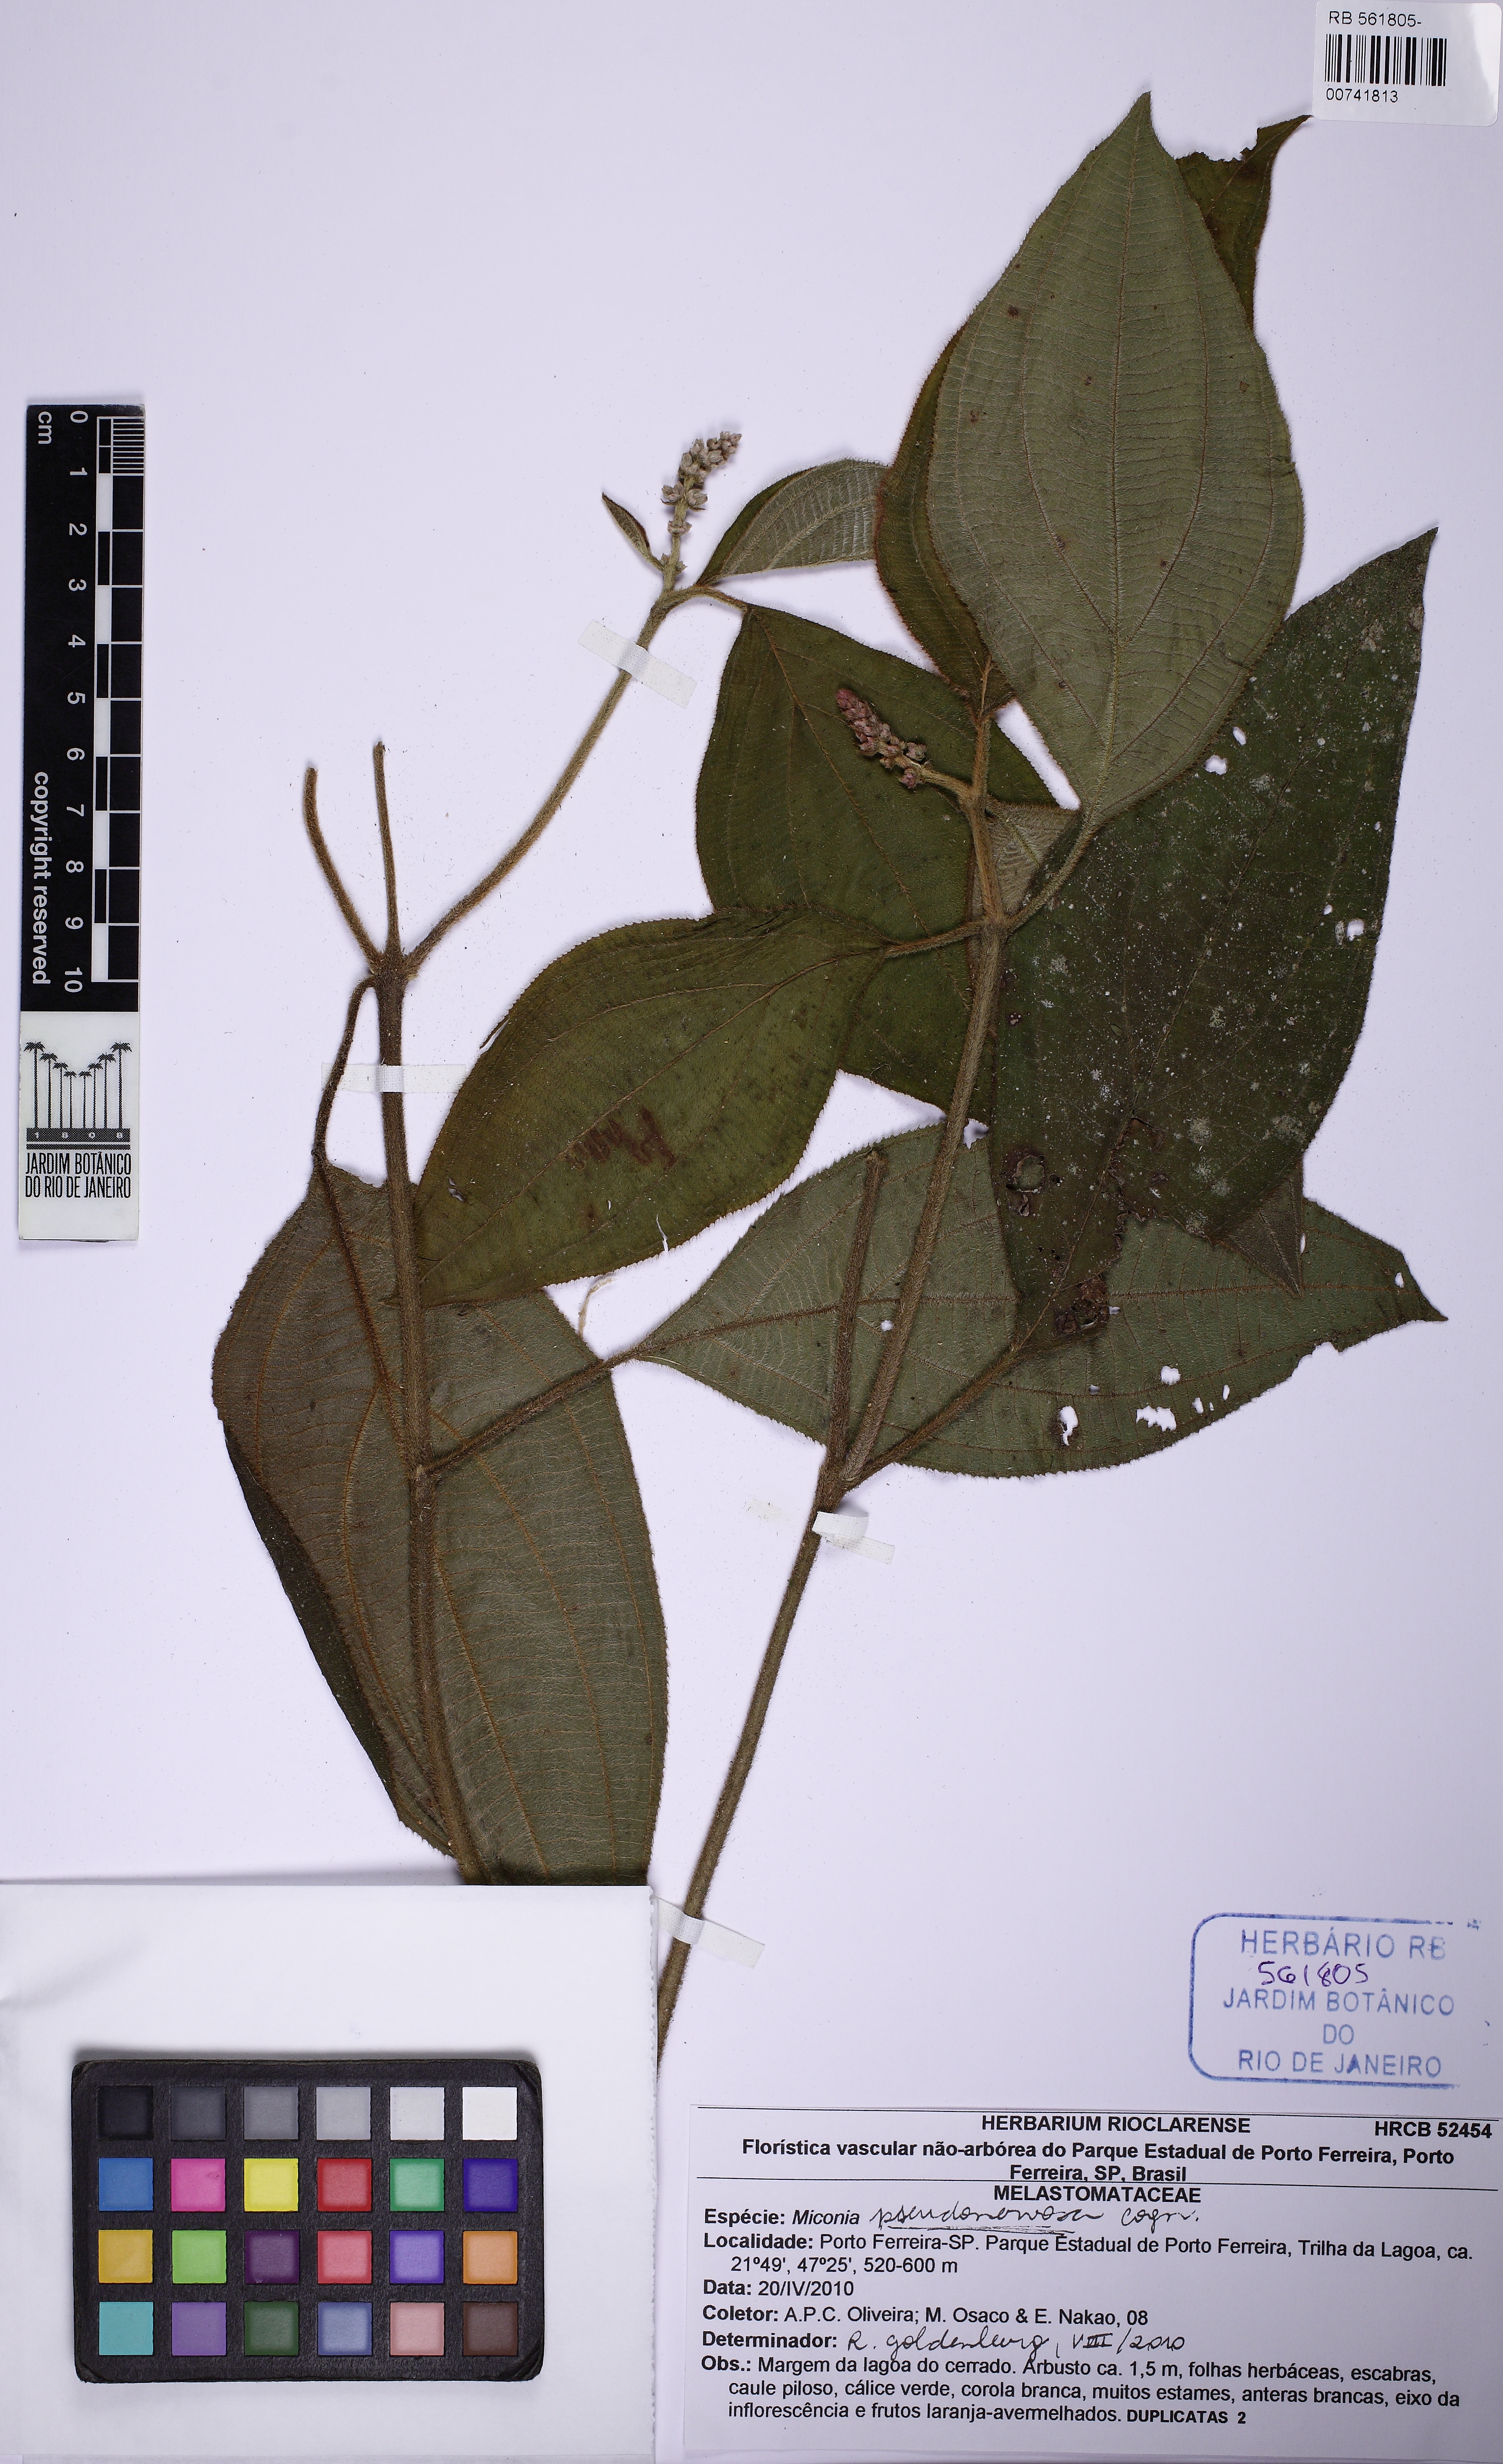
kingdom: Plantae
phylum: Tracheophyta
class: Magnoliopsida
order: Myrtales
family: Melastomataceae
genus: Miconia
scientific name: Miconia pseudonervosa
